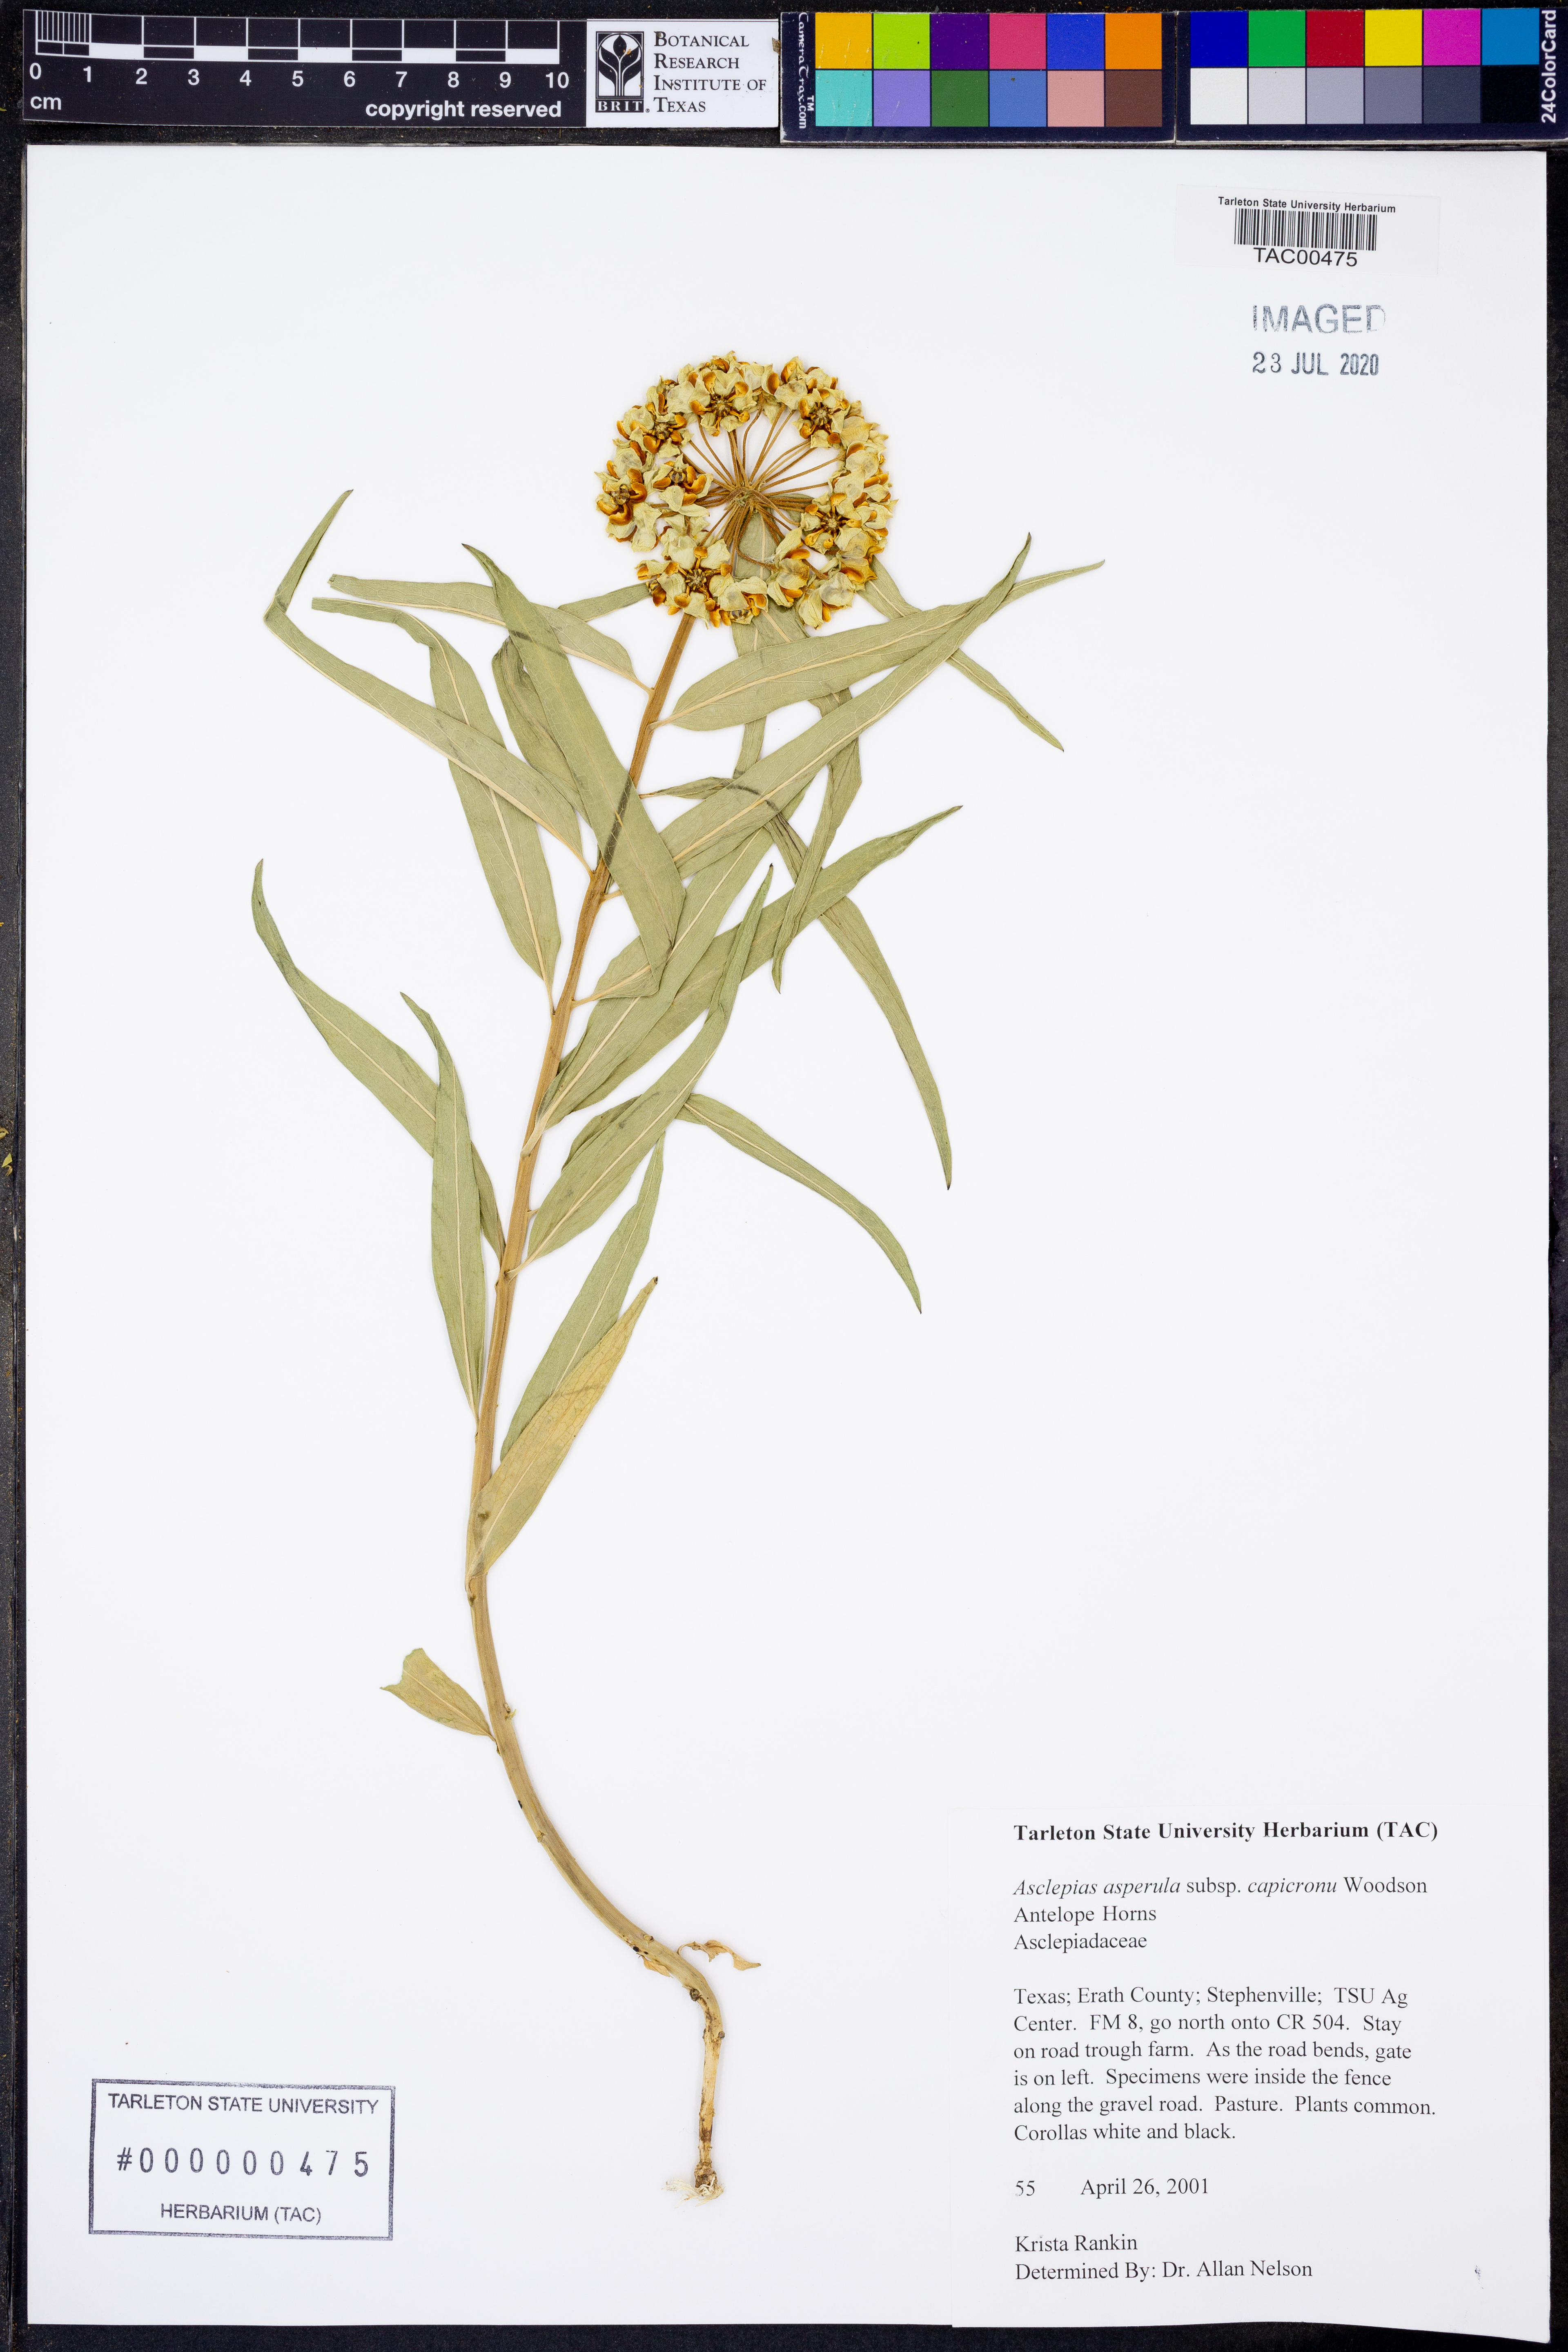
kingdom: Plantae
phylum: Tracheophyta
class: Magnoliopsida
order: Gentianales
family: Apocynaceae
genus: Asclepias
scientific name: Asclepias asperula
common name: Antelope horns
